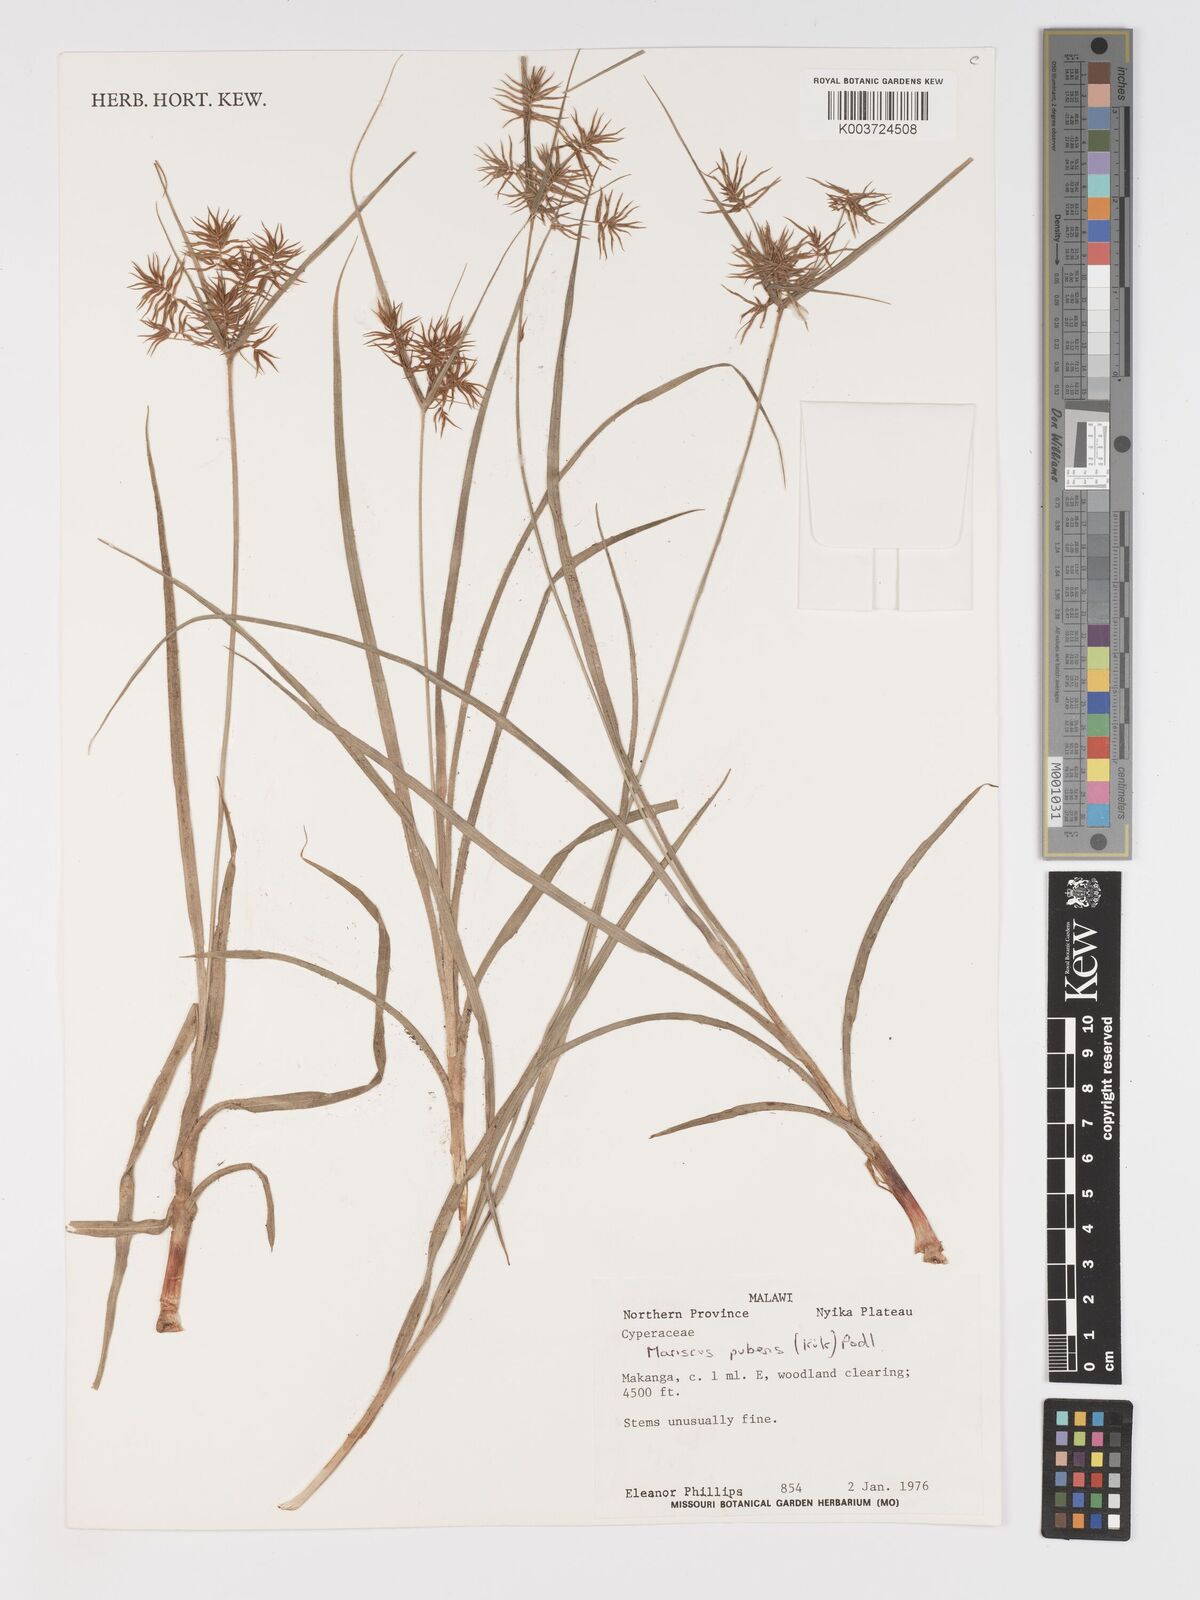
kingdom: Plantae
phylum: Tracheophyta
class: Liliopsida
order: Poales
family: Cyperaceae
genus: Cyperus
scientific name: Cyperus pubens
